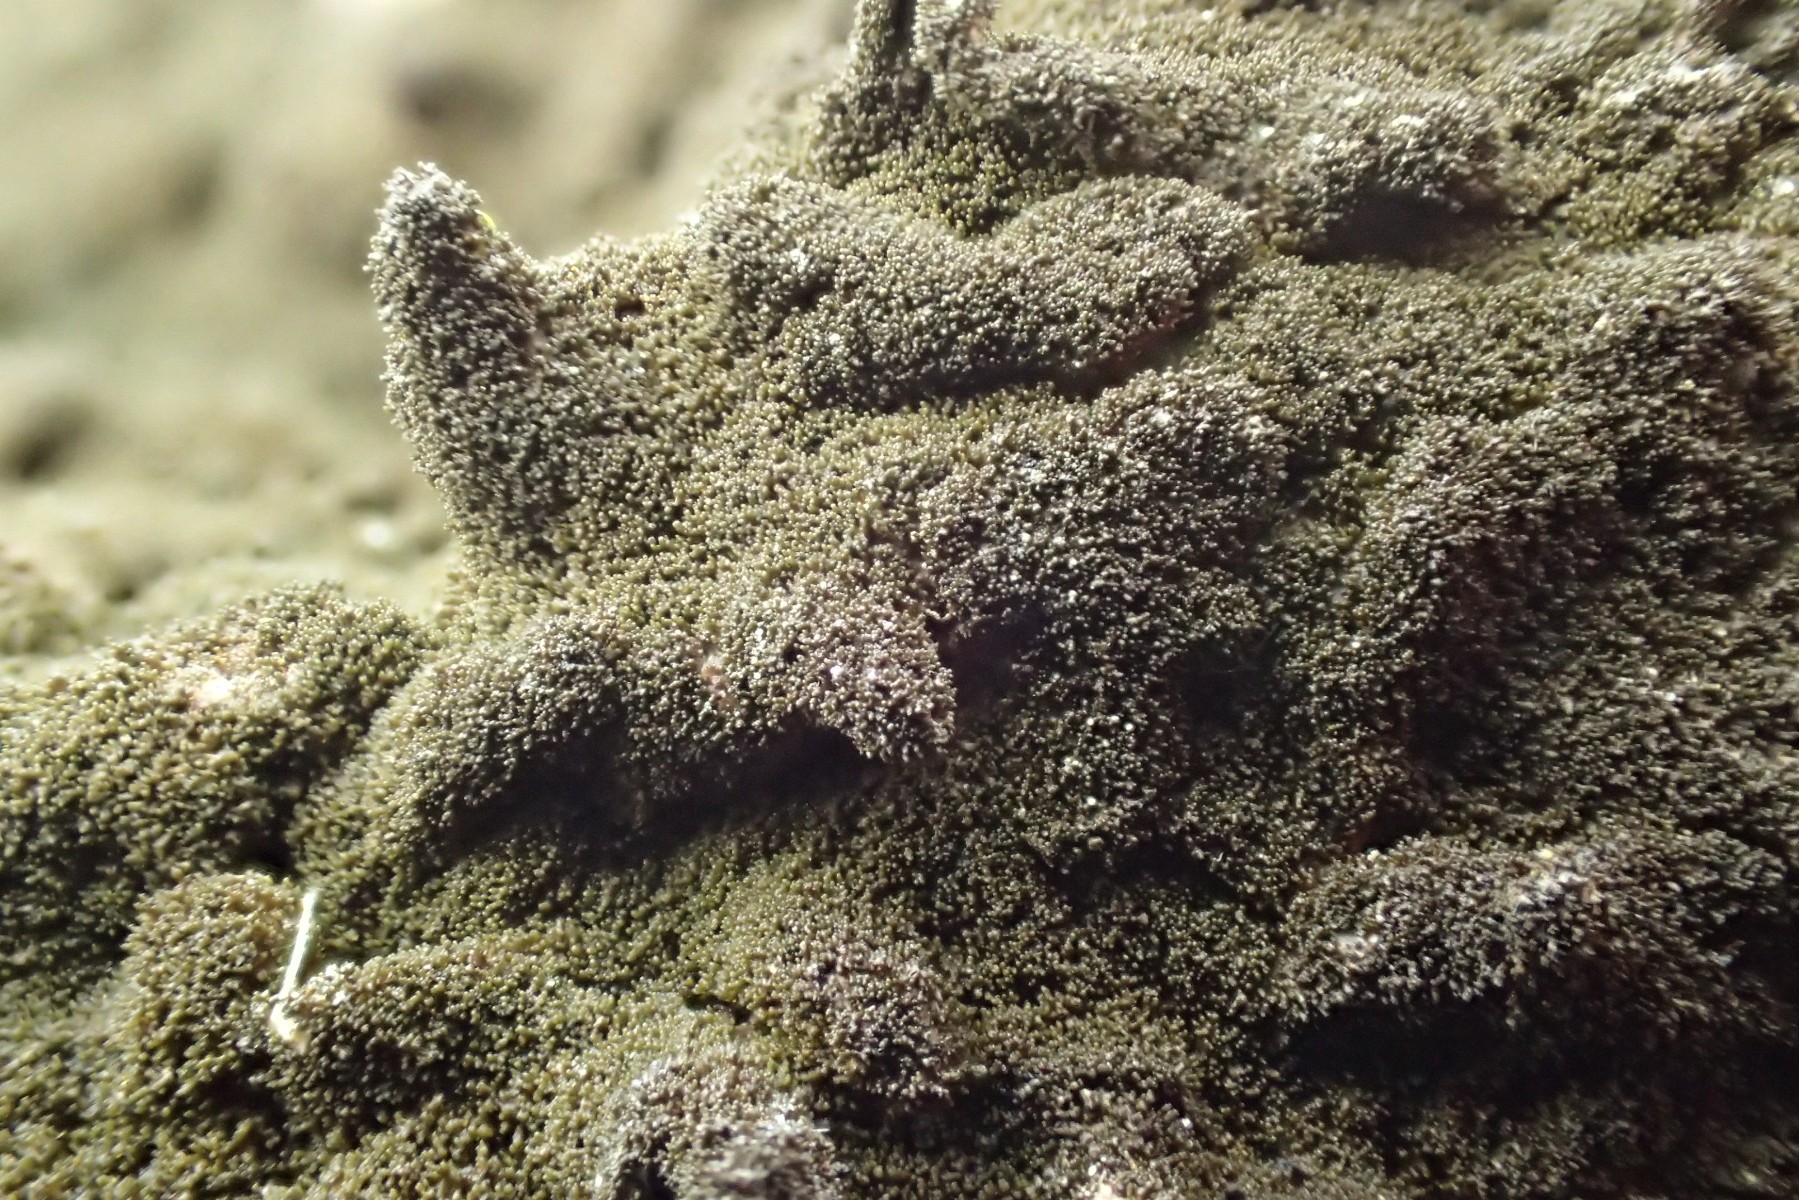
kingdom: Fungi
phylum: Ascomycota
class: Lecanoromycetes
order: Lecanorales
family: Parmeliaceae
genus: Melanelixia
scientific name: Melanelixia fuliginosa
